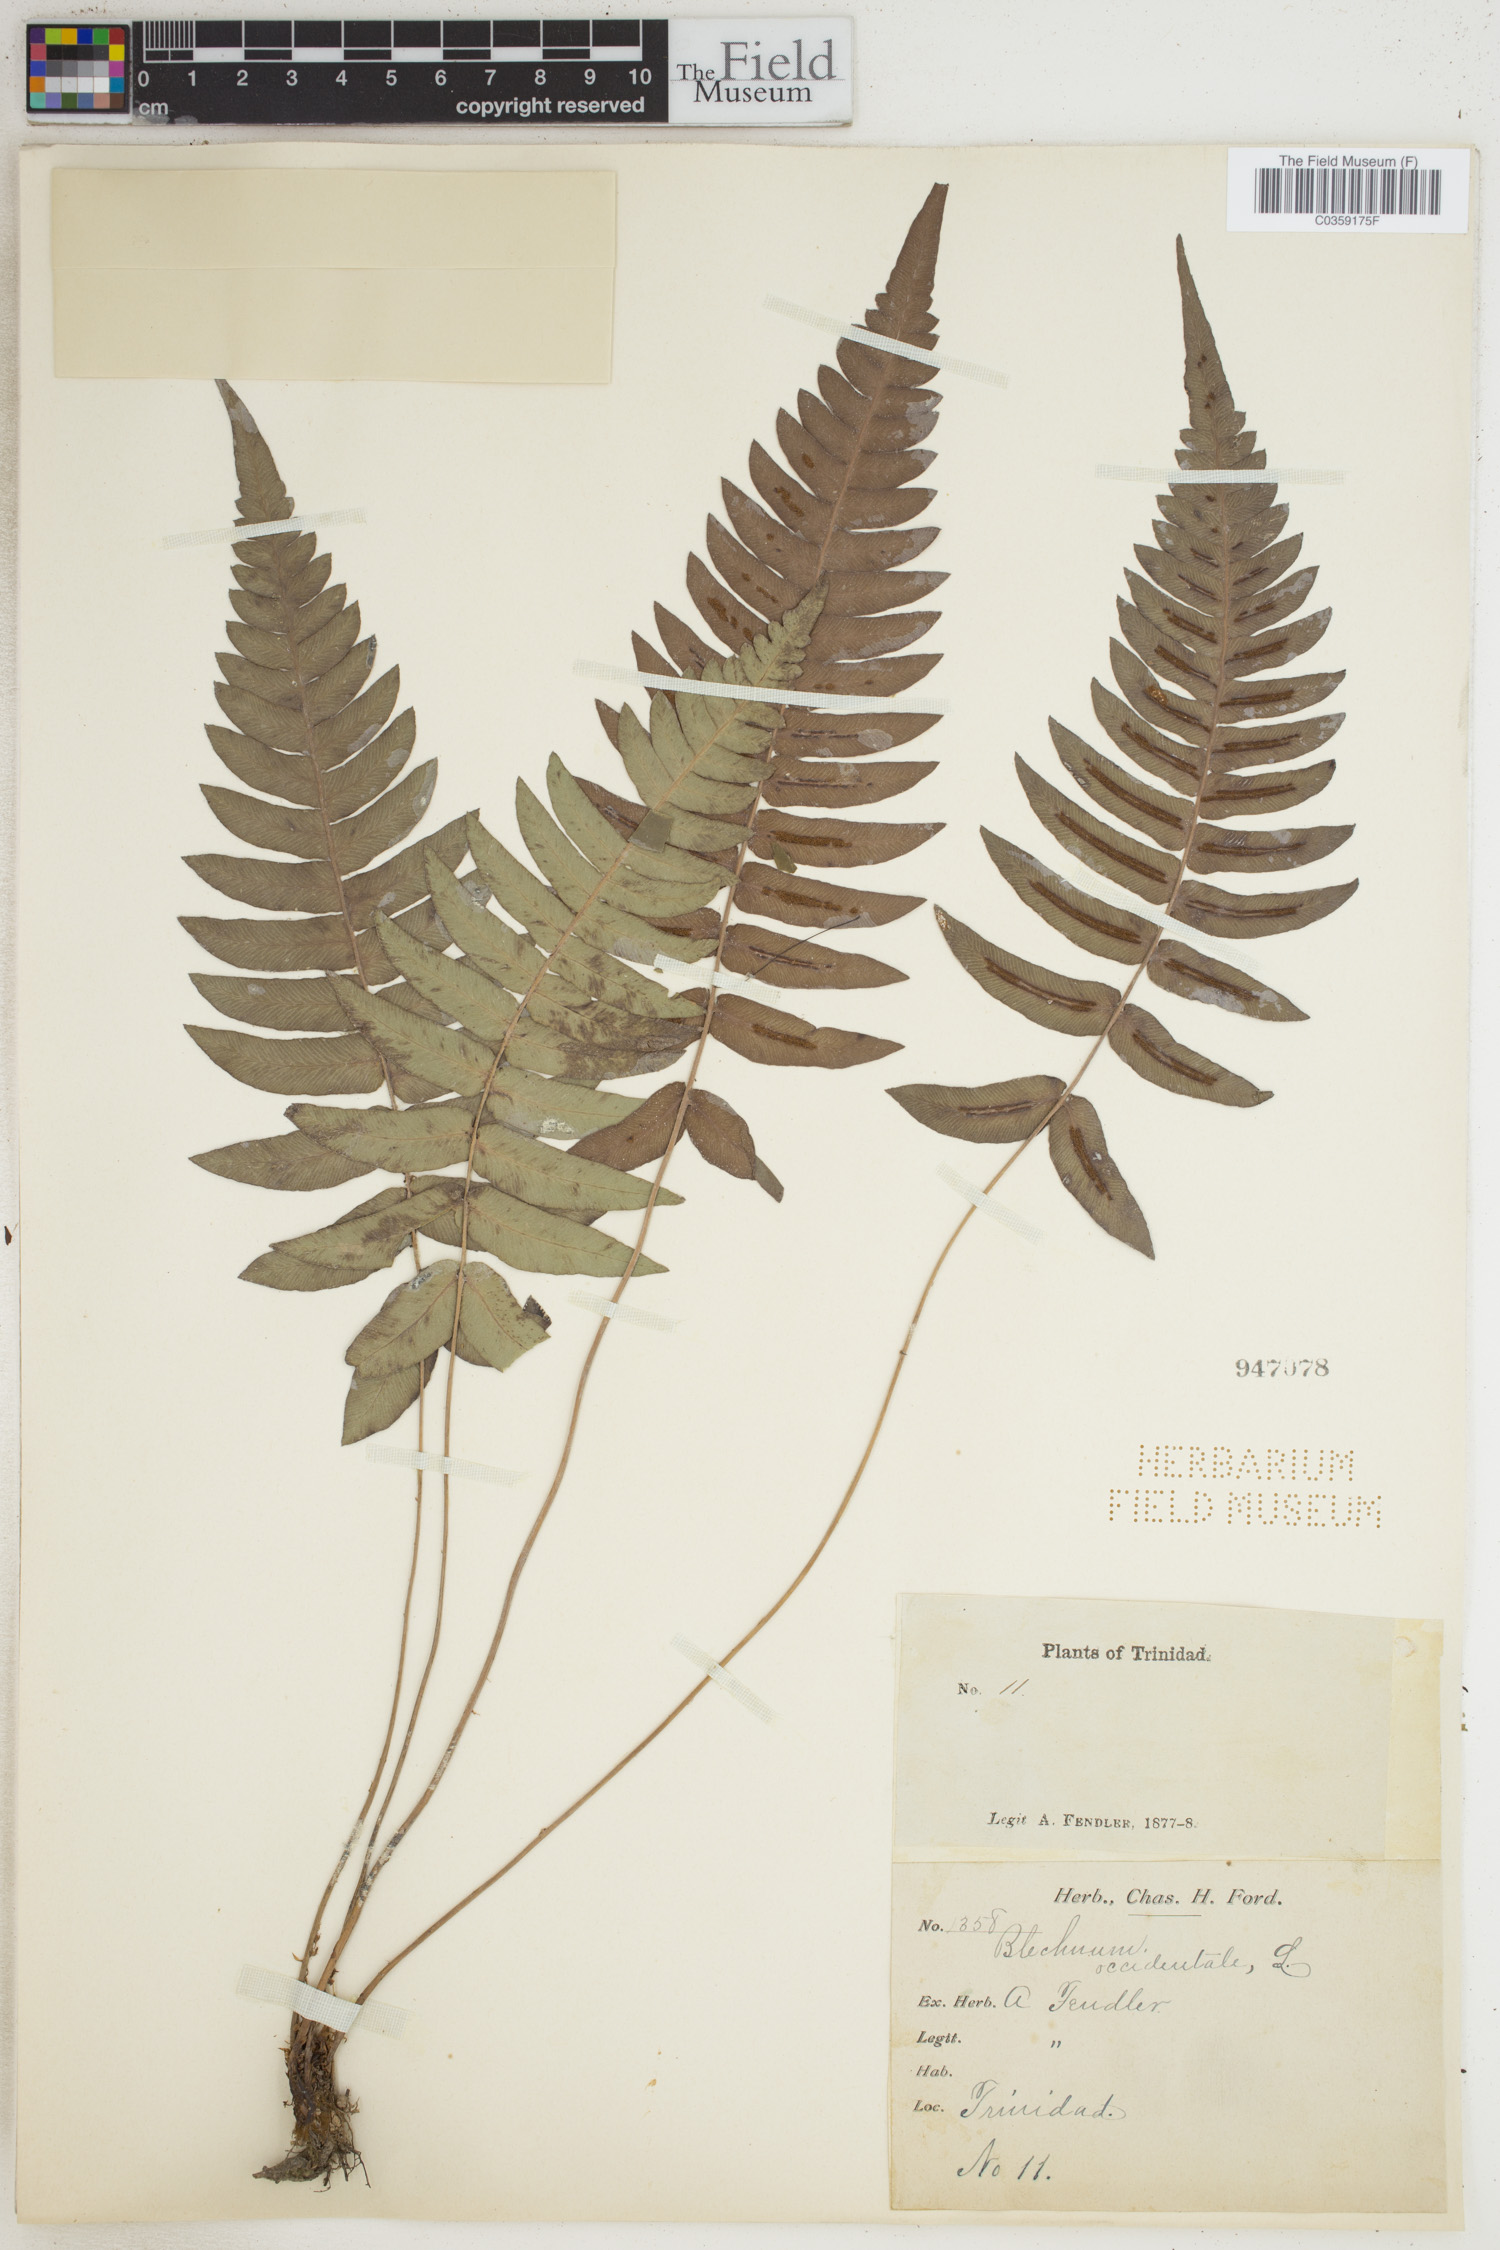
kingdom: Plantae
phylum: Tracheophyta
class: Polypodiopsida
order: Polypodiales
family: Blechnaceae
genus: Blechnum
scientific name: Blechnum occidentale
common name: Hammock fern
